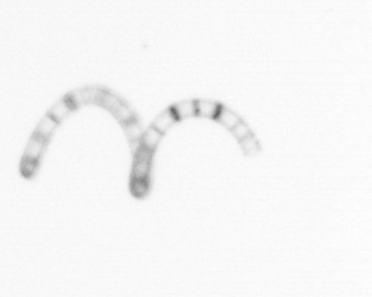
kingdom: Chromista
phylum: Ochrophyta
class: Bacillariophyceae
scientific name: Bacillariophyceae
